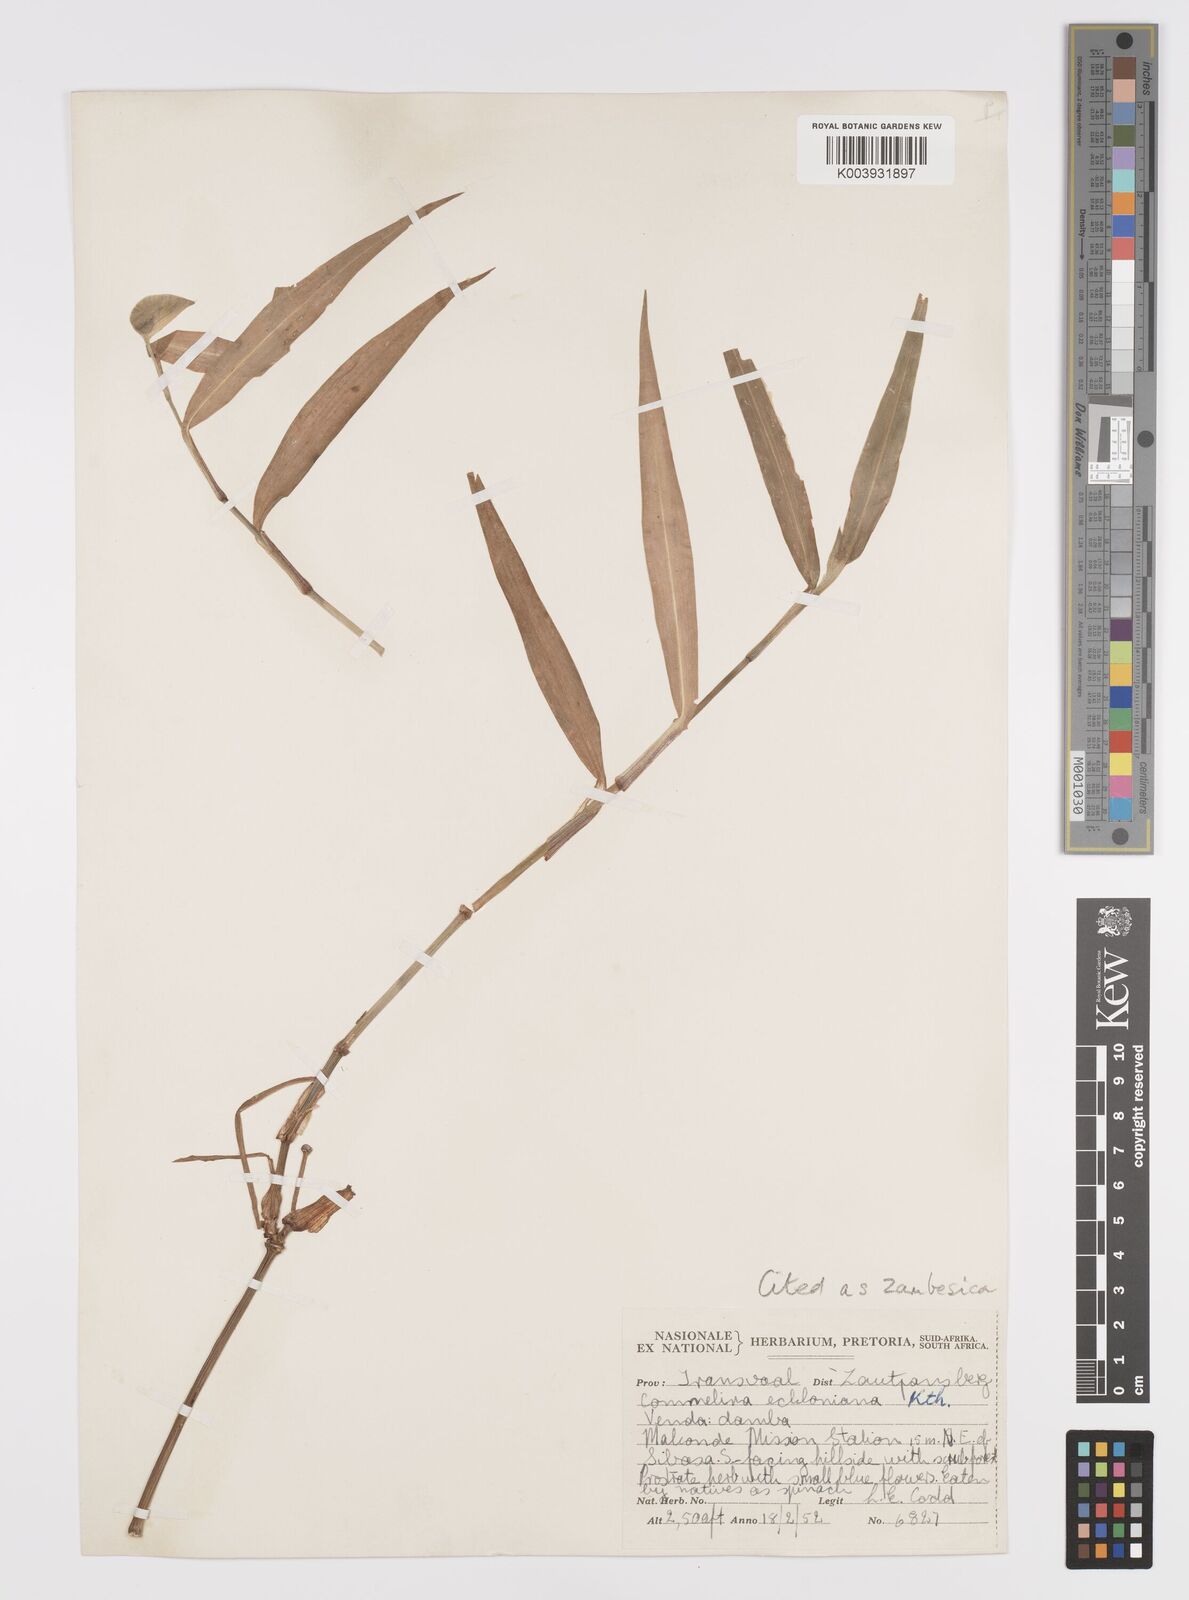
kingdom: Plantae
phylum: Tracheophyta
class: Liliopsida
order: Commelinales
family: Commelinaceae
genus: Commelina
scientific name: Commelina zambesica
